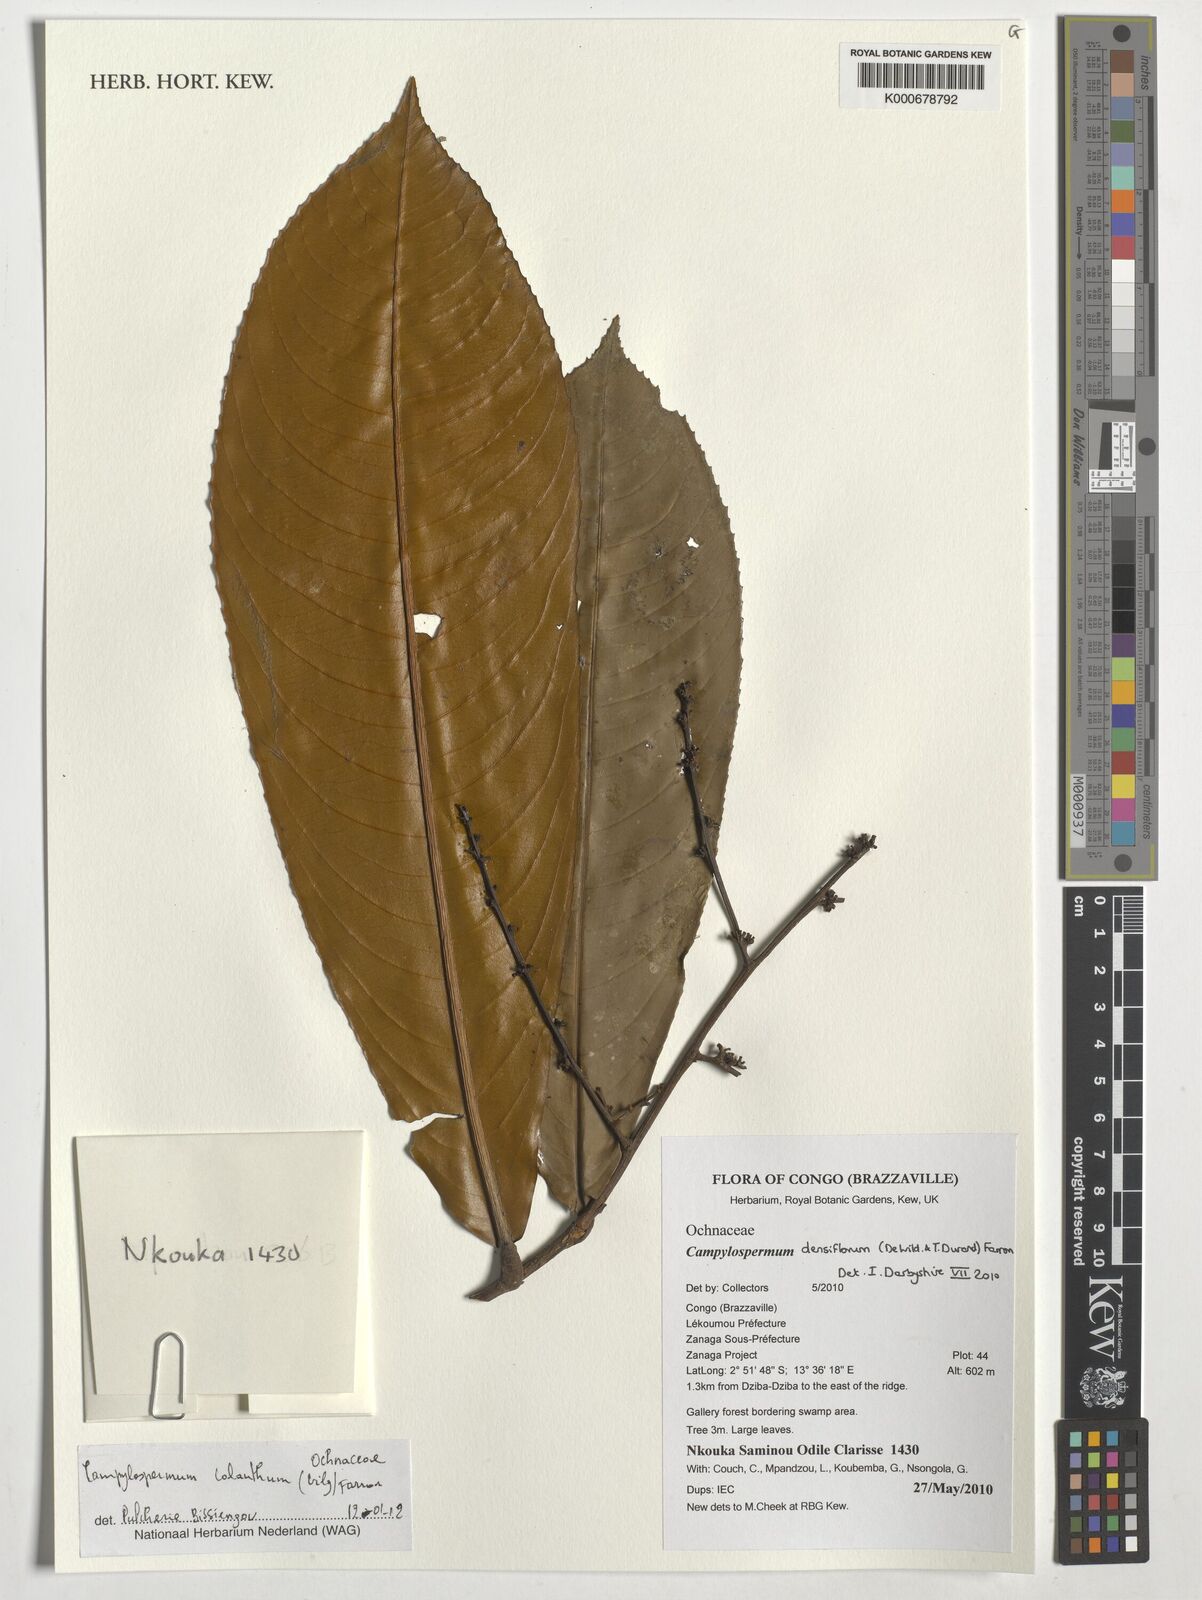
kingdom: Plantae
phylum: Tracheophyta
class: Magnoliopsida
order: Malpighiales
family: Ochnaceae
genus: Campylospermum
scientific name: Campylospermum calanthum
